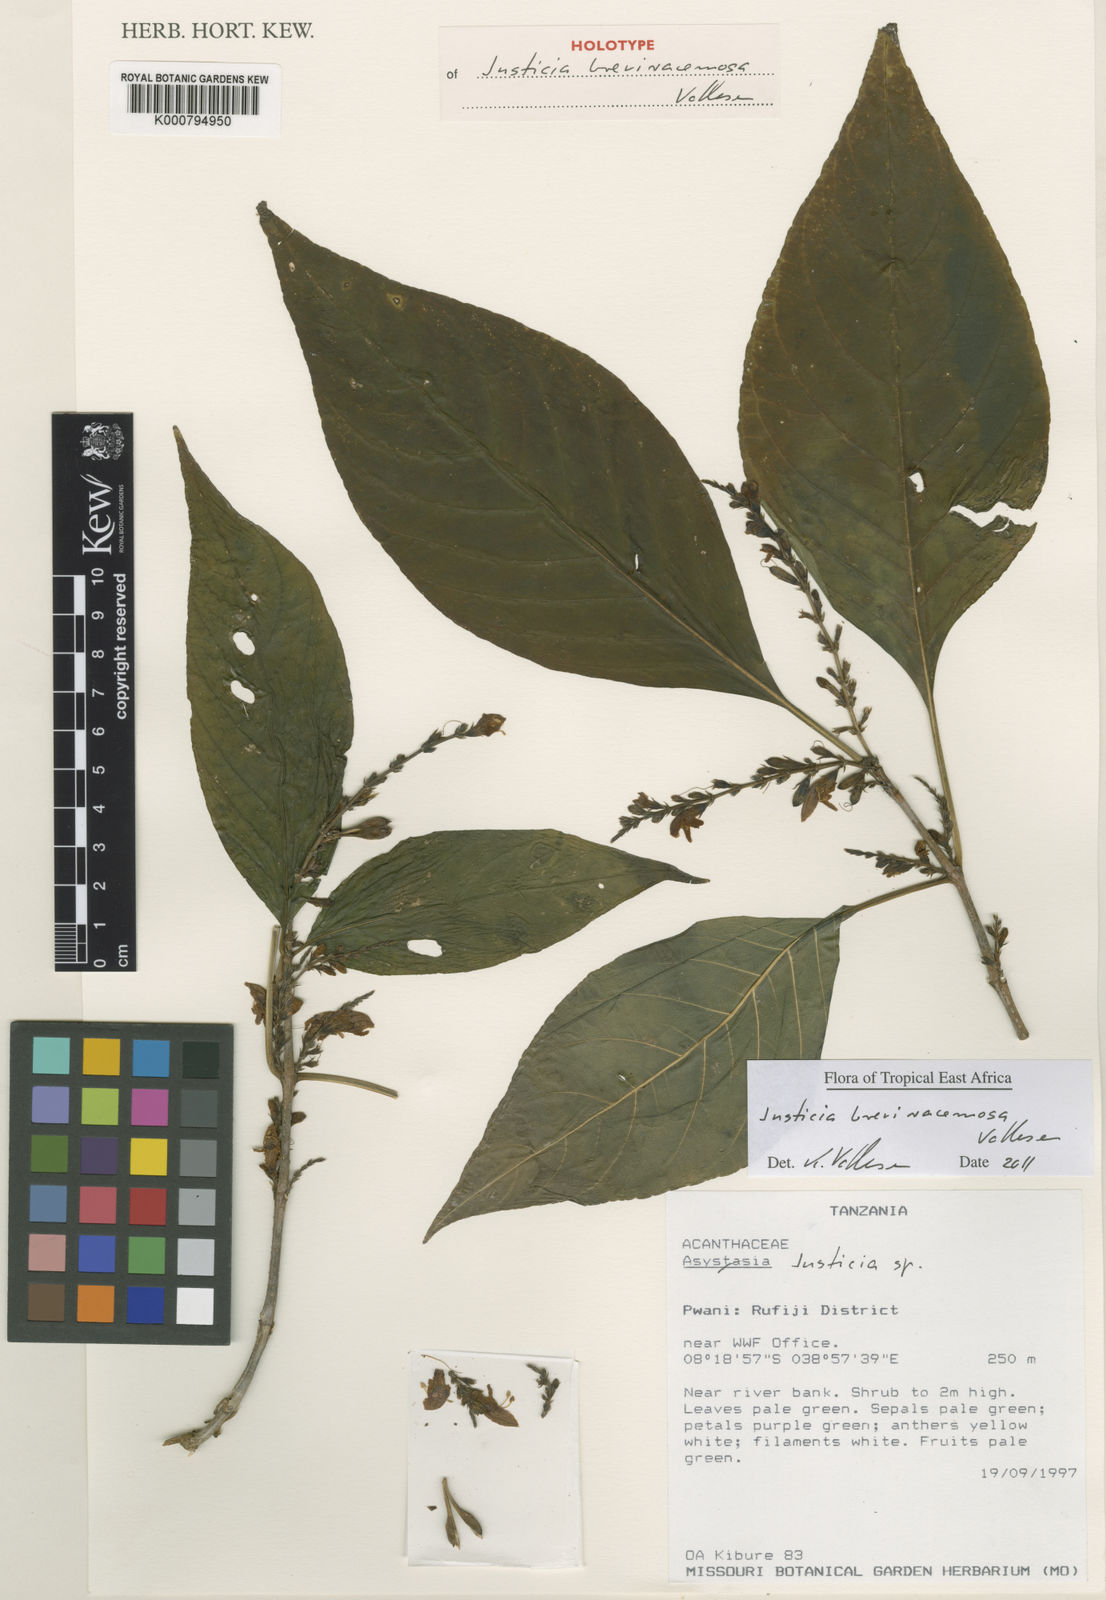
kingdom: Plantae
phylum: Tracheophyta
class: Magnoliopsida
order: Lamiales
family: Acanthaceae
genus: Justicia
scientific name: Justicia breviracemosa
